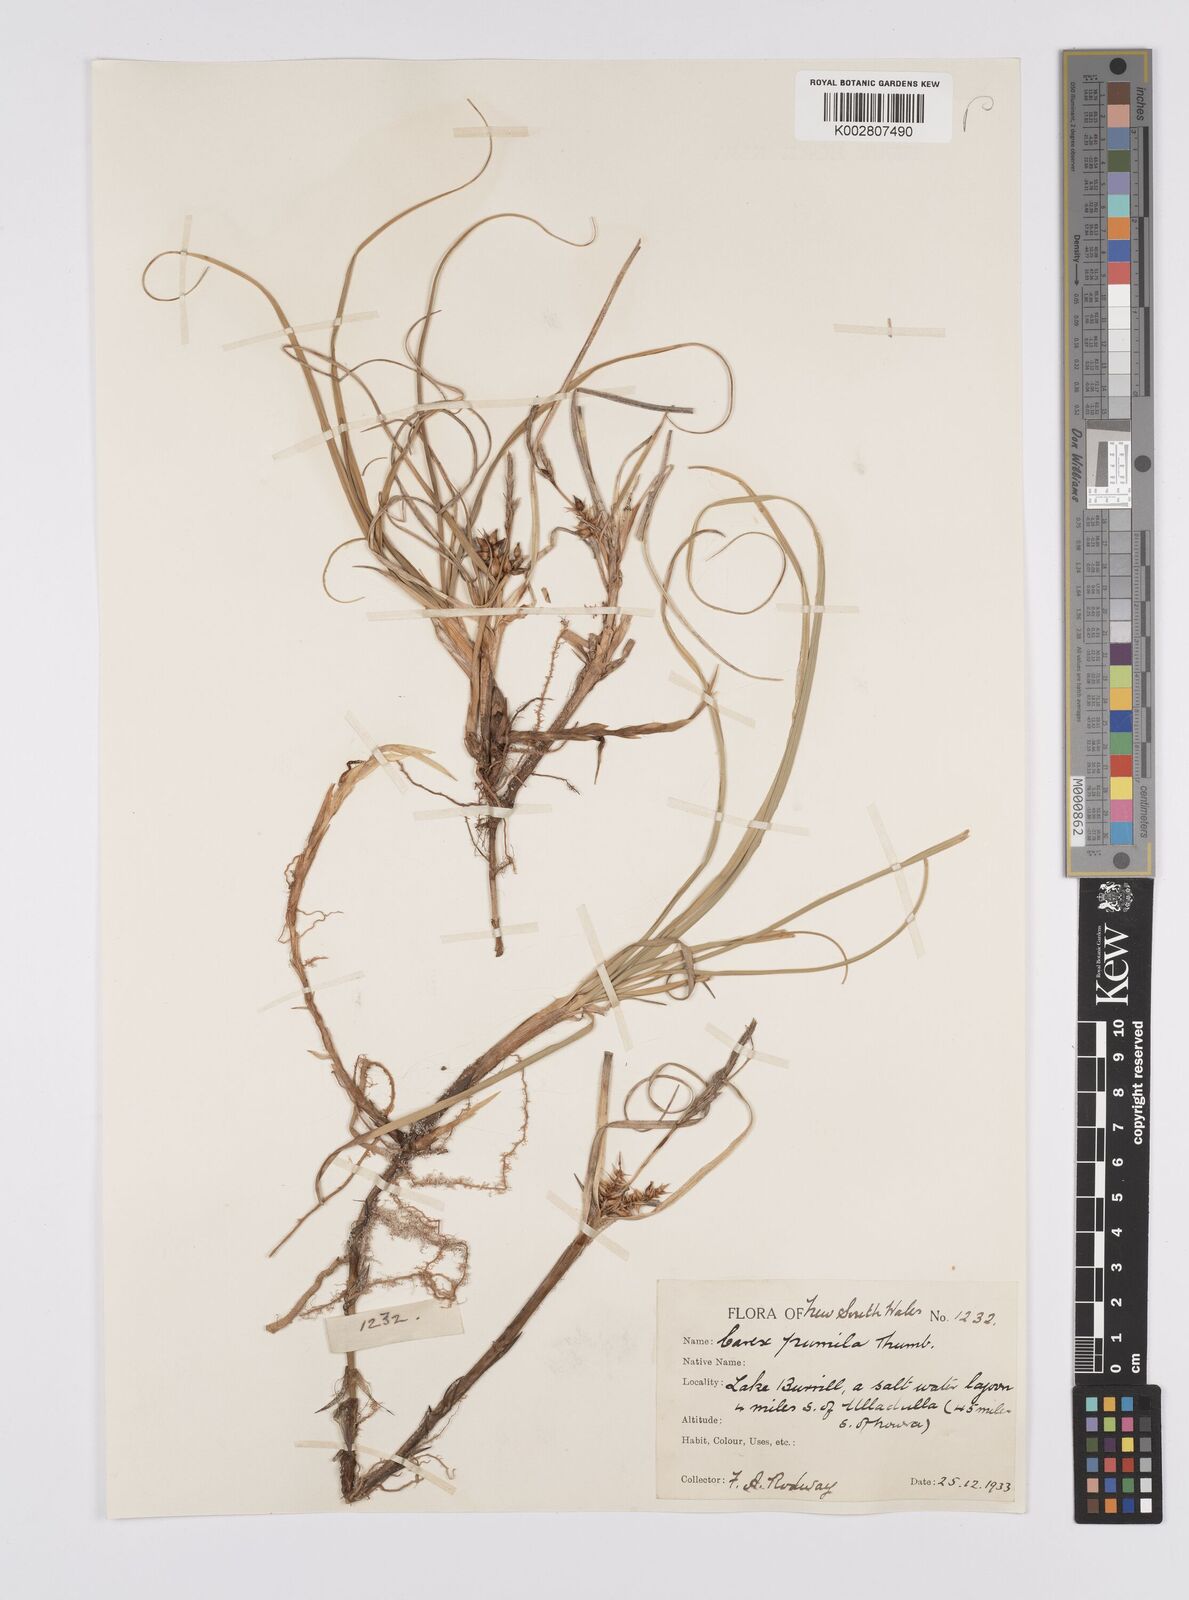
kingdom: Plantae
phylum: Tracheophyta
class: Liliopsida
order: Poales
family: Cyperaceae
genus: Carex
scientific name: Carex pumila
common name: Dwarf sedge
